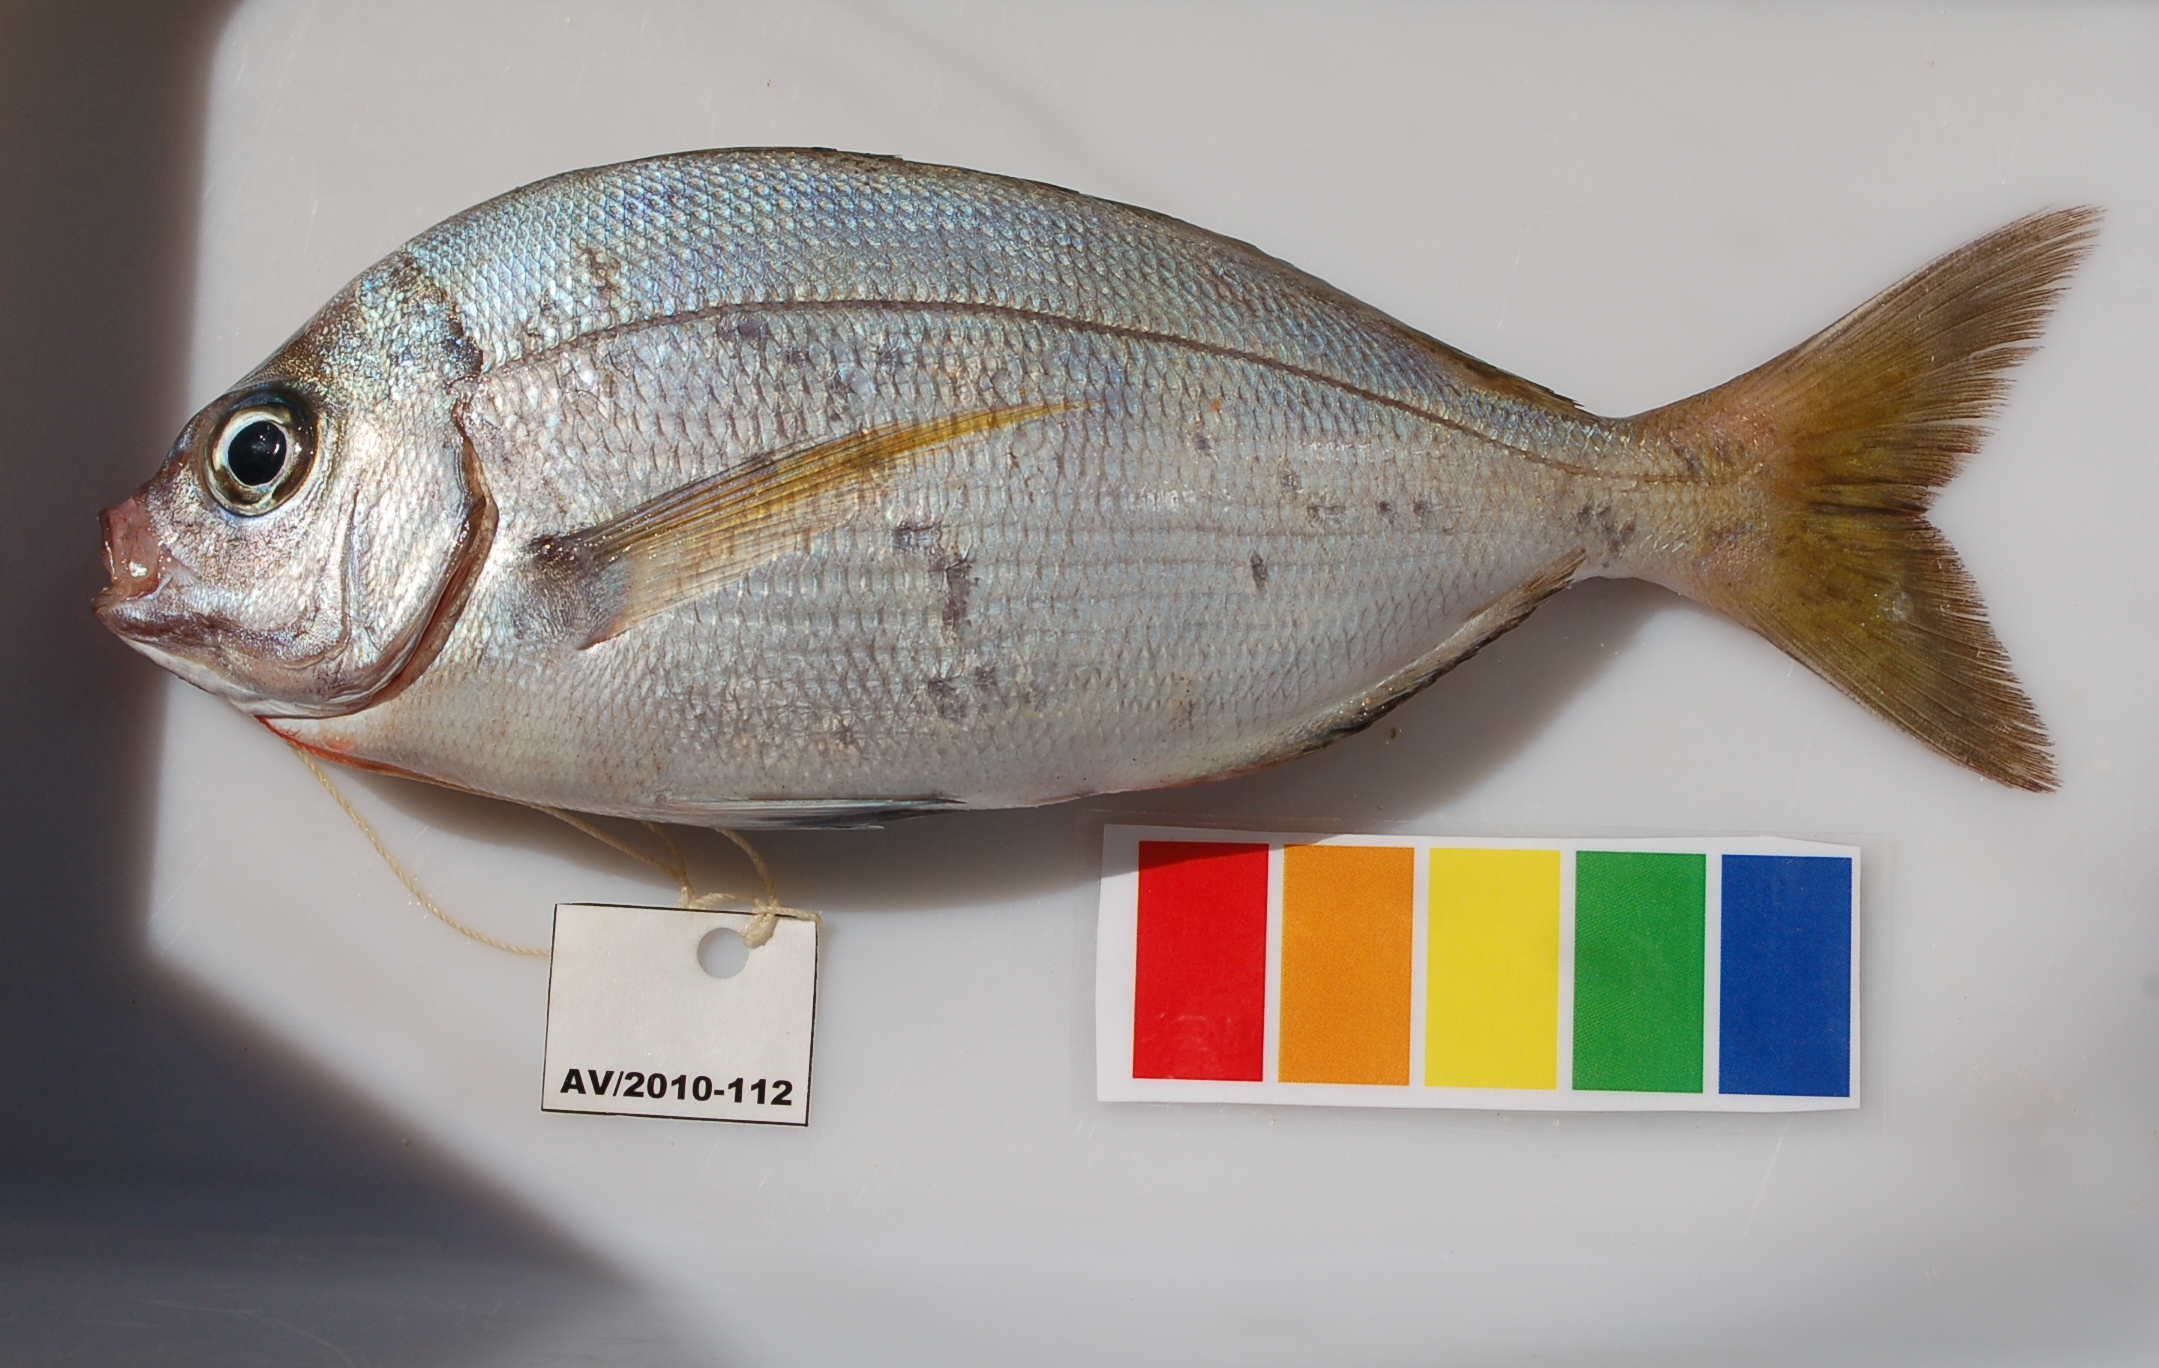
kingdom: Animalia
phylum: Chordata
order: Perciformes
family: Sparidae
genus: Polyamblyodon
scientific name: Polyamblyodon gibbosum
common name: Cristie
